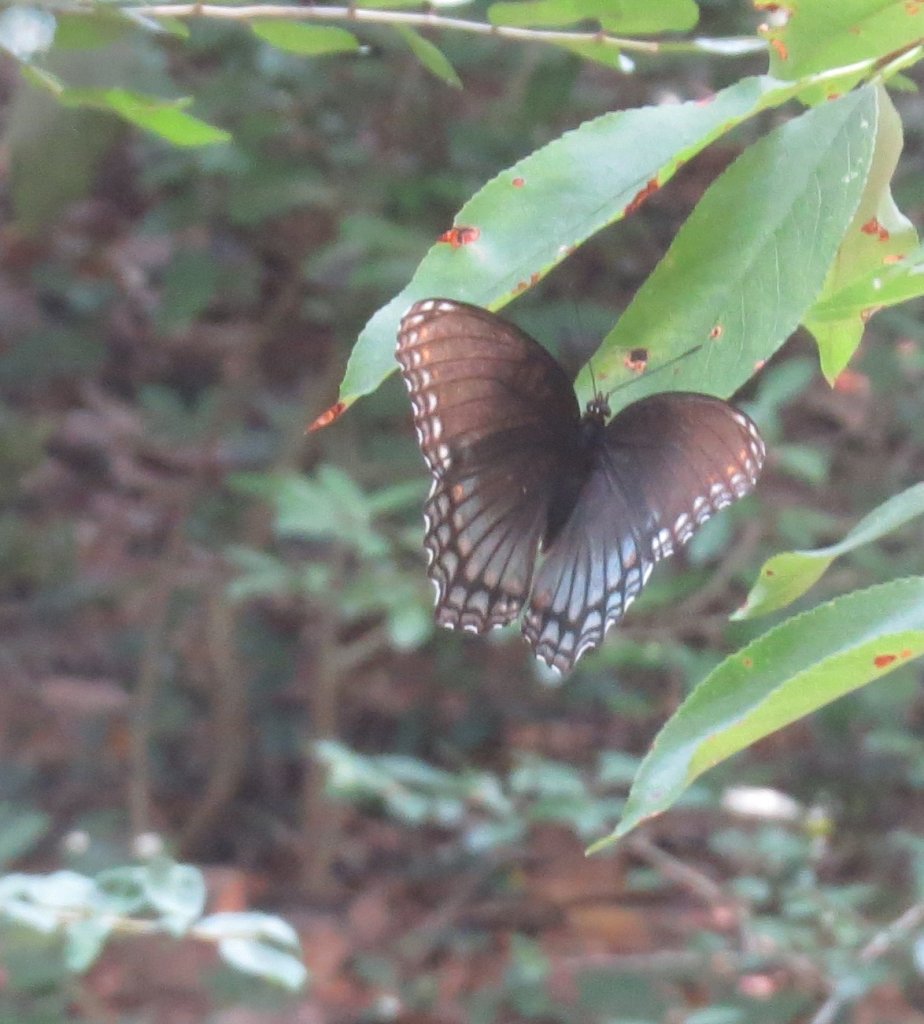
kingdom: Animalia
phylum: Arthropoda
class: Insecta
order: Lepidoptera
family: Nymphalidae
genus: Limenitis
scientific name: Limenitis astyanax
